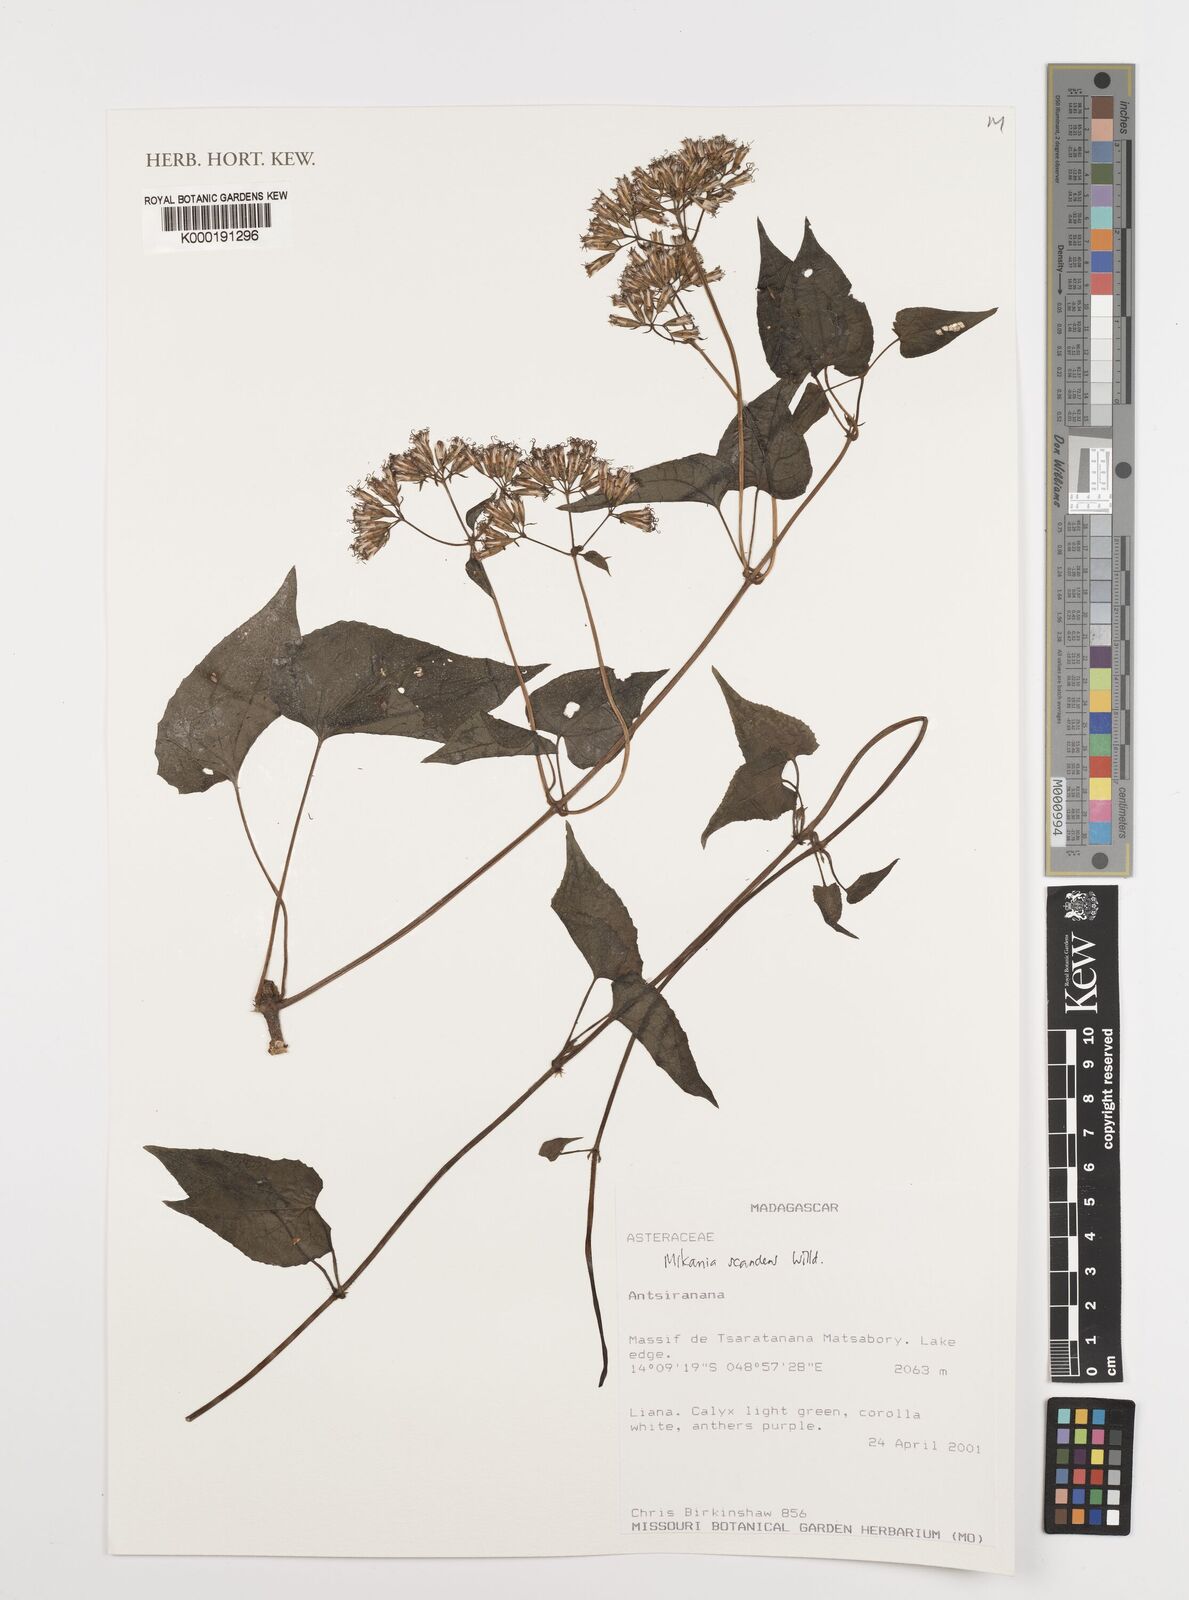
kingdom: Plantae
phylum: Tracheophyta
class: Magnoliopsida
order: Asterales
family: Asteraceae
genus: Mikania
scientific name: Mikania scandens
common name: Climbing hempvine
